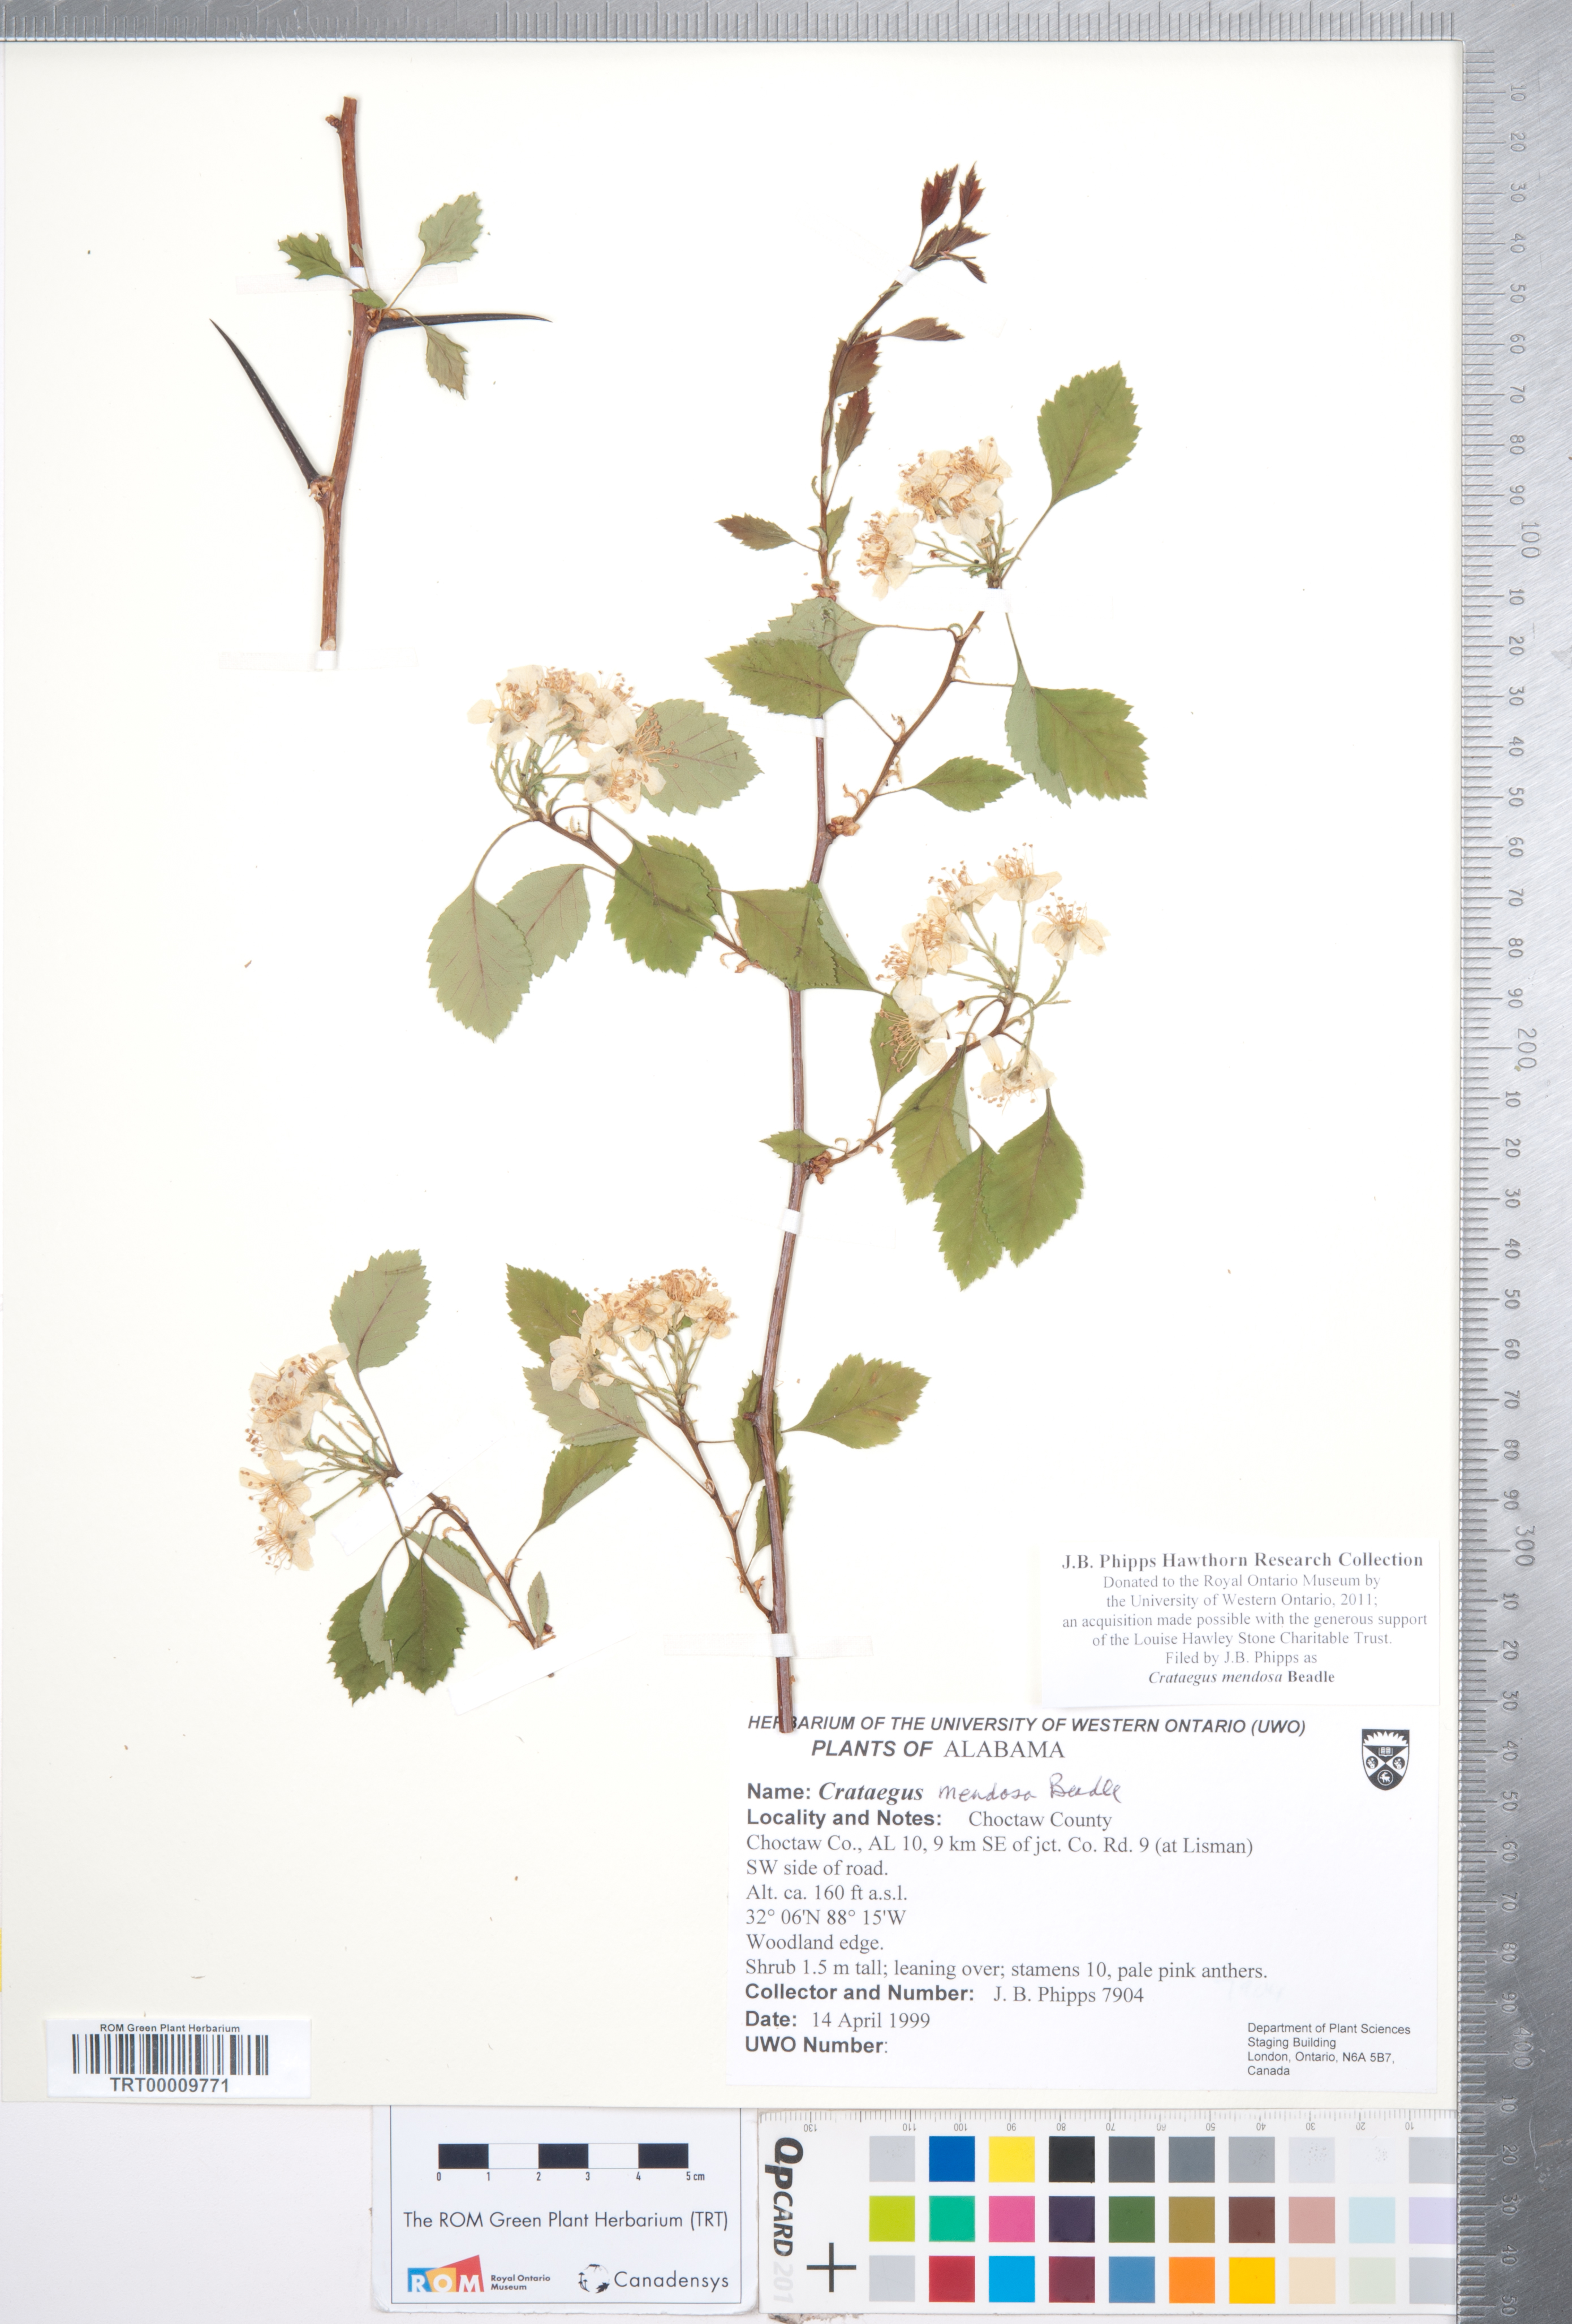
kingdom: Plantae
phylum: Tracheophyta
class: Magnoliopsida
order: Rosales
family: Rosaceae
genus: Crataegus
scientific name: Crataegus pulcherrima
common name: Beautiful hawthorn
